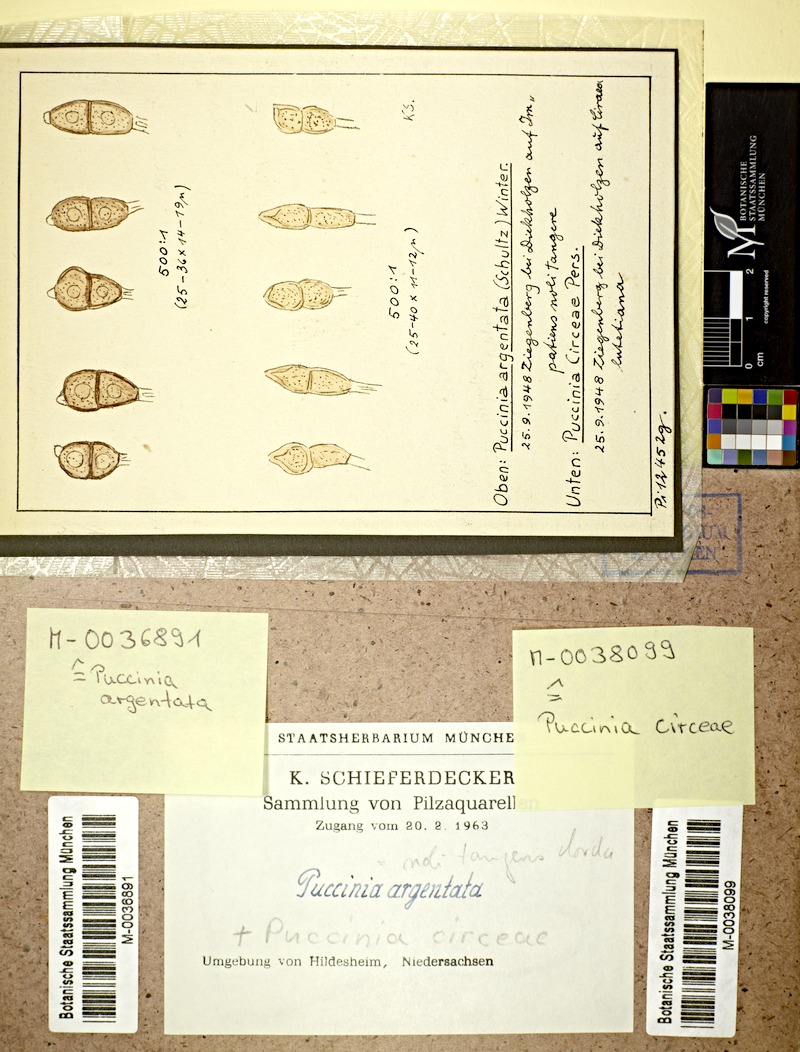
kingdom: Plantae
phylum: Tracheophyta
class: Magnoliopsida
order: Myrtales
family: Onagraceae
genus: Circaea
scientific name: Circaea lutetiana
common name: Enchanter's-nightshade
